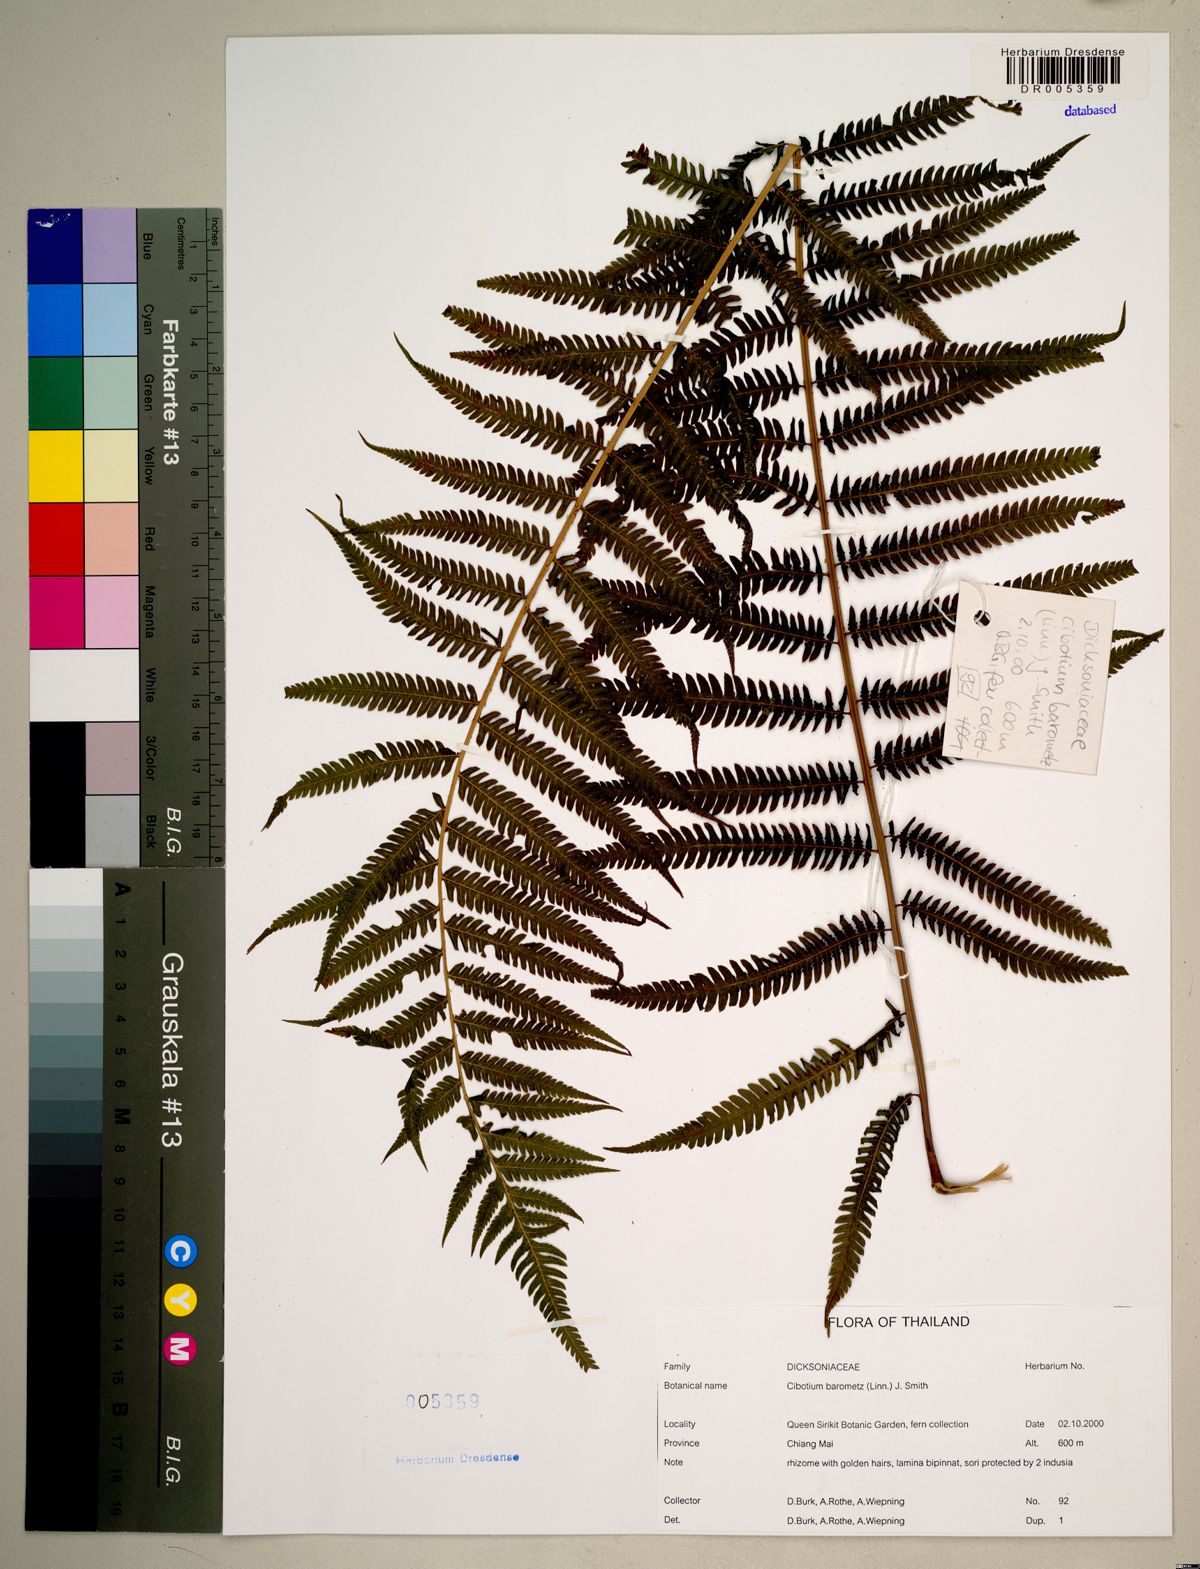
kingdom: Plantae
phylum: Tracheophyta
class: Polypodiopsida
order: Cyatheales
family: Cibotiaceae
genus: Cibotium
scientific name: Cibotium barometz
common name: Scythian-lamb
